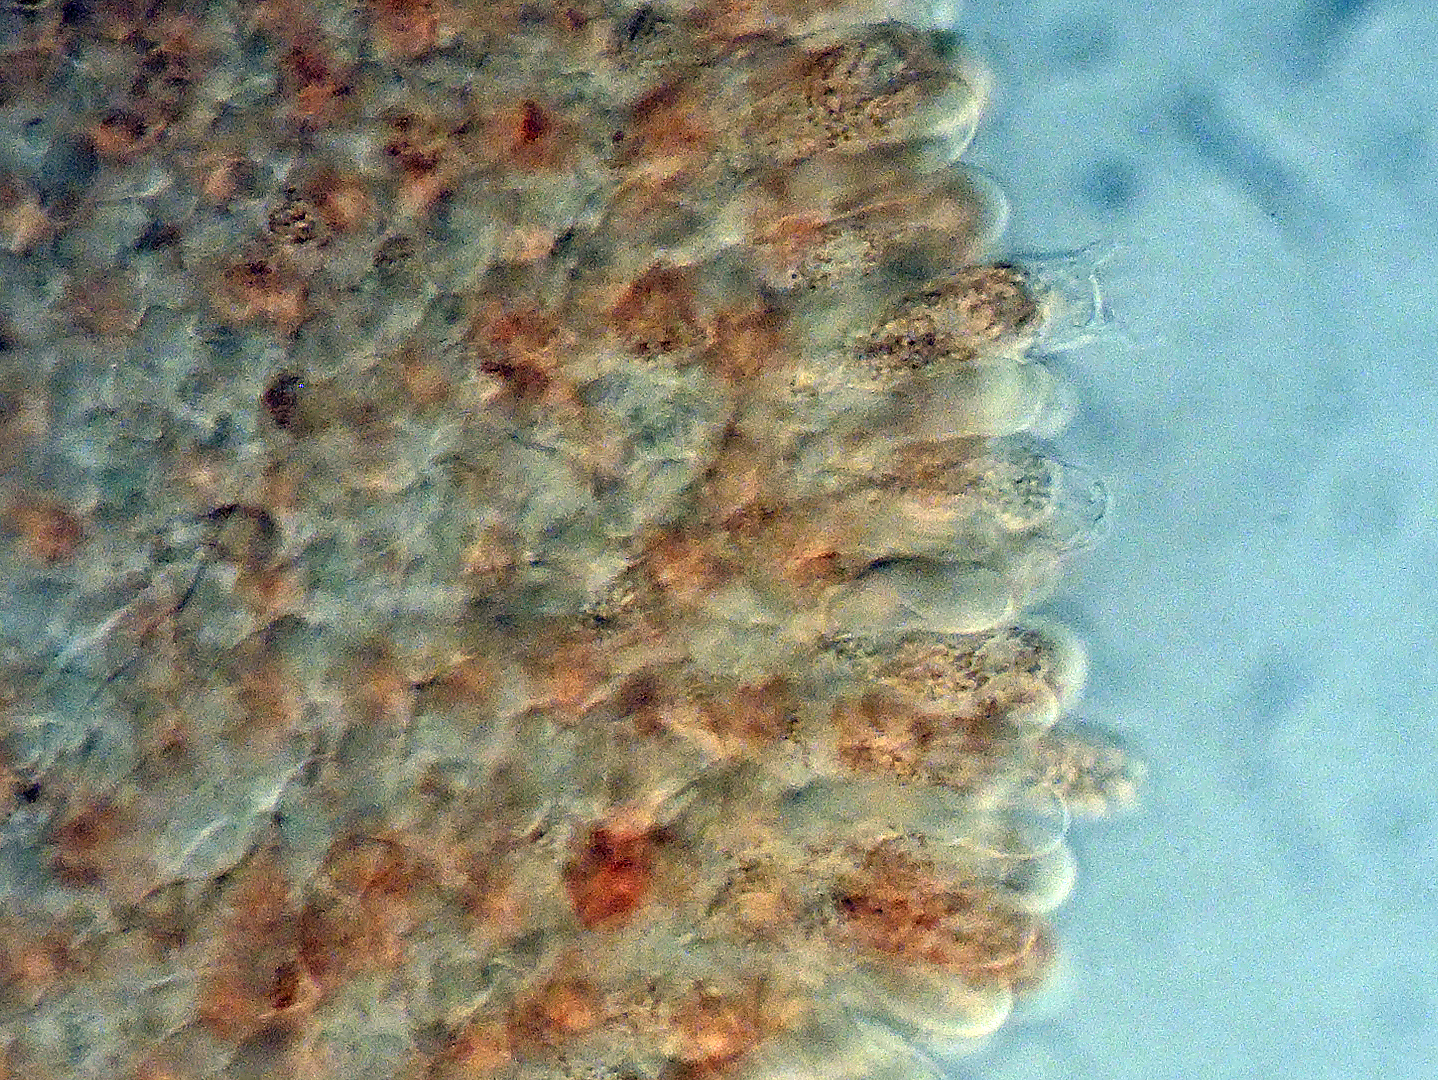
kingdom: Fungi
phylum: Basidiomycota
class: Agaricomycetes
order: Agaricales
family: Typhulaceae
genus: Typhula
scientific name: Typhula
